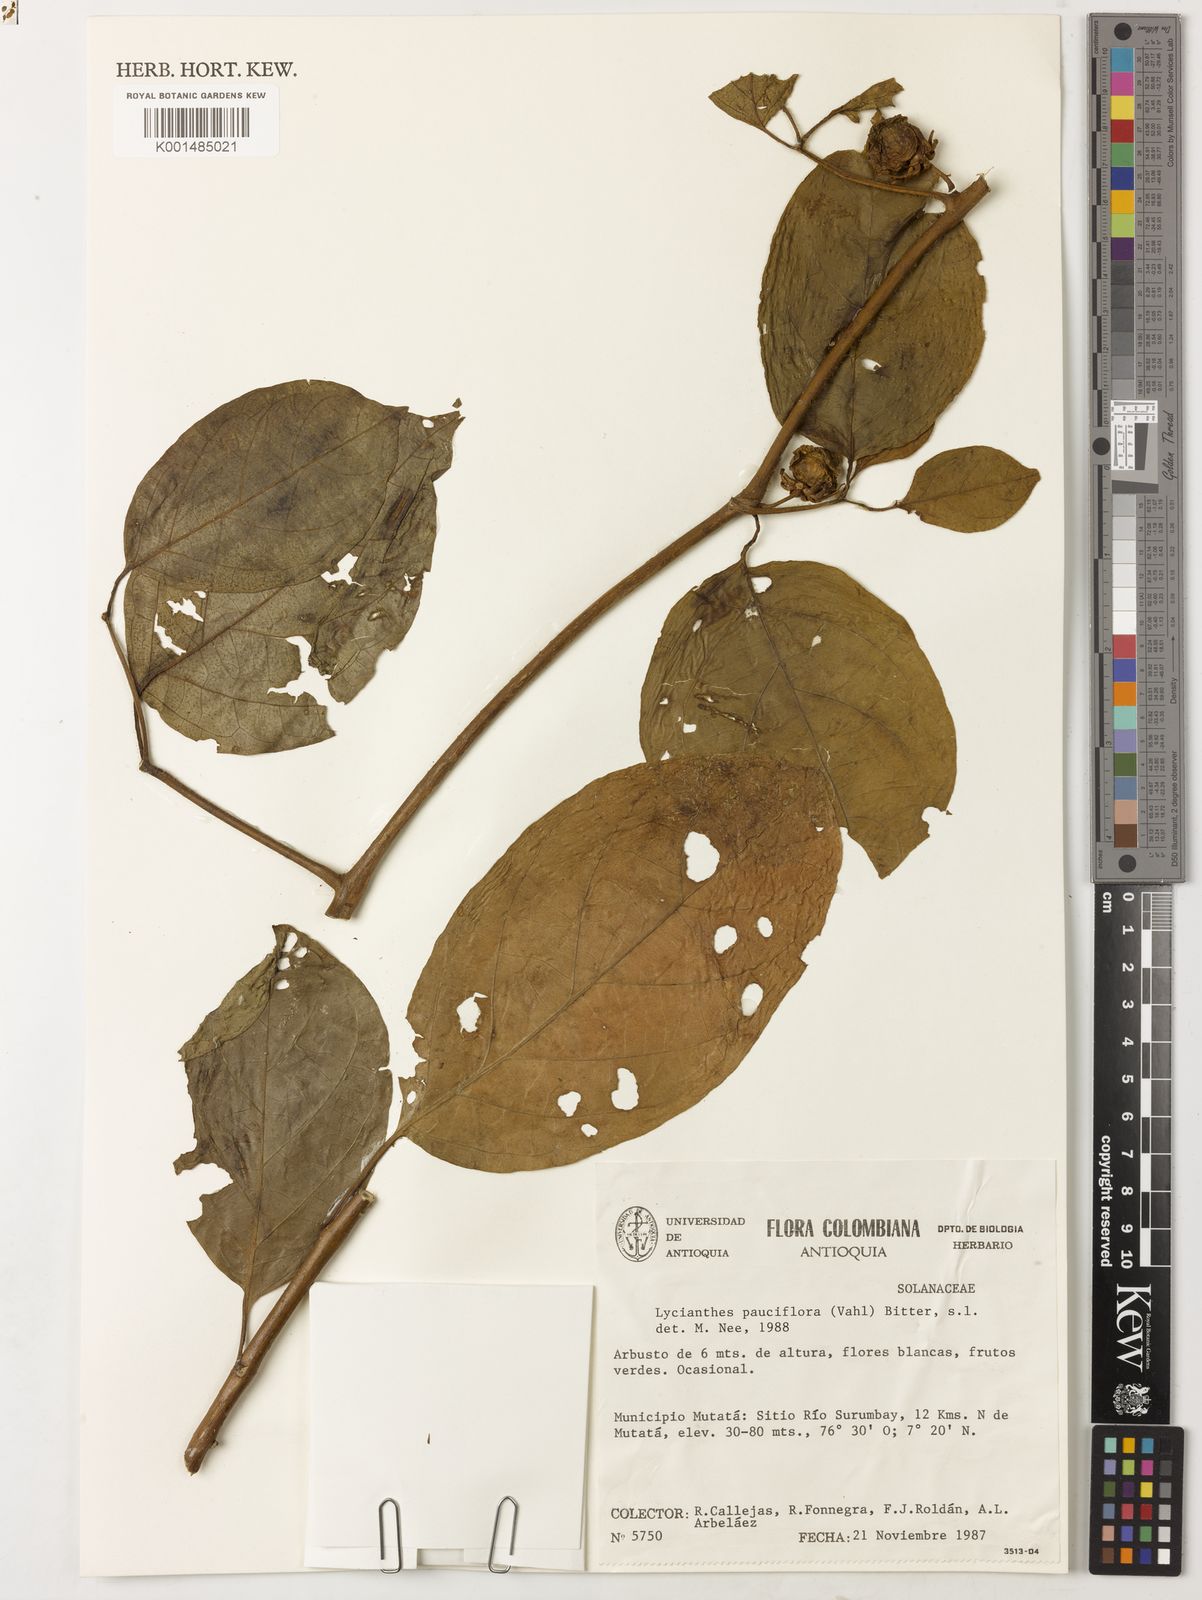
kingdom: Plantae
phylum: Tracheophyta
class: Magnoliopsida
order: Solanales
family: Solanaceae
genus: Lycianthes
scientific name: Lycianthes pauciflora
